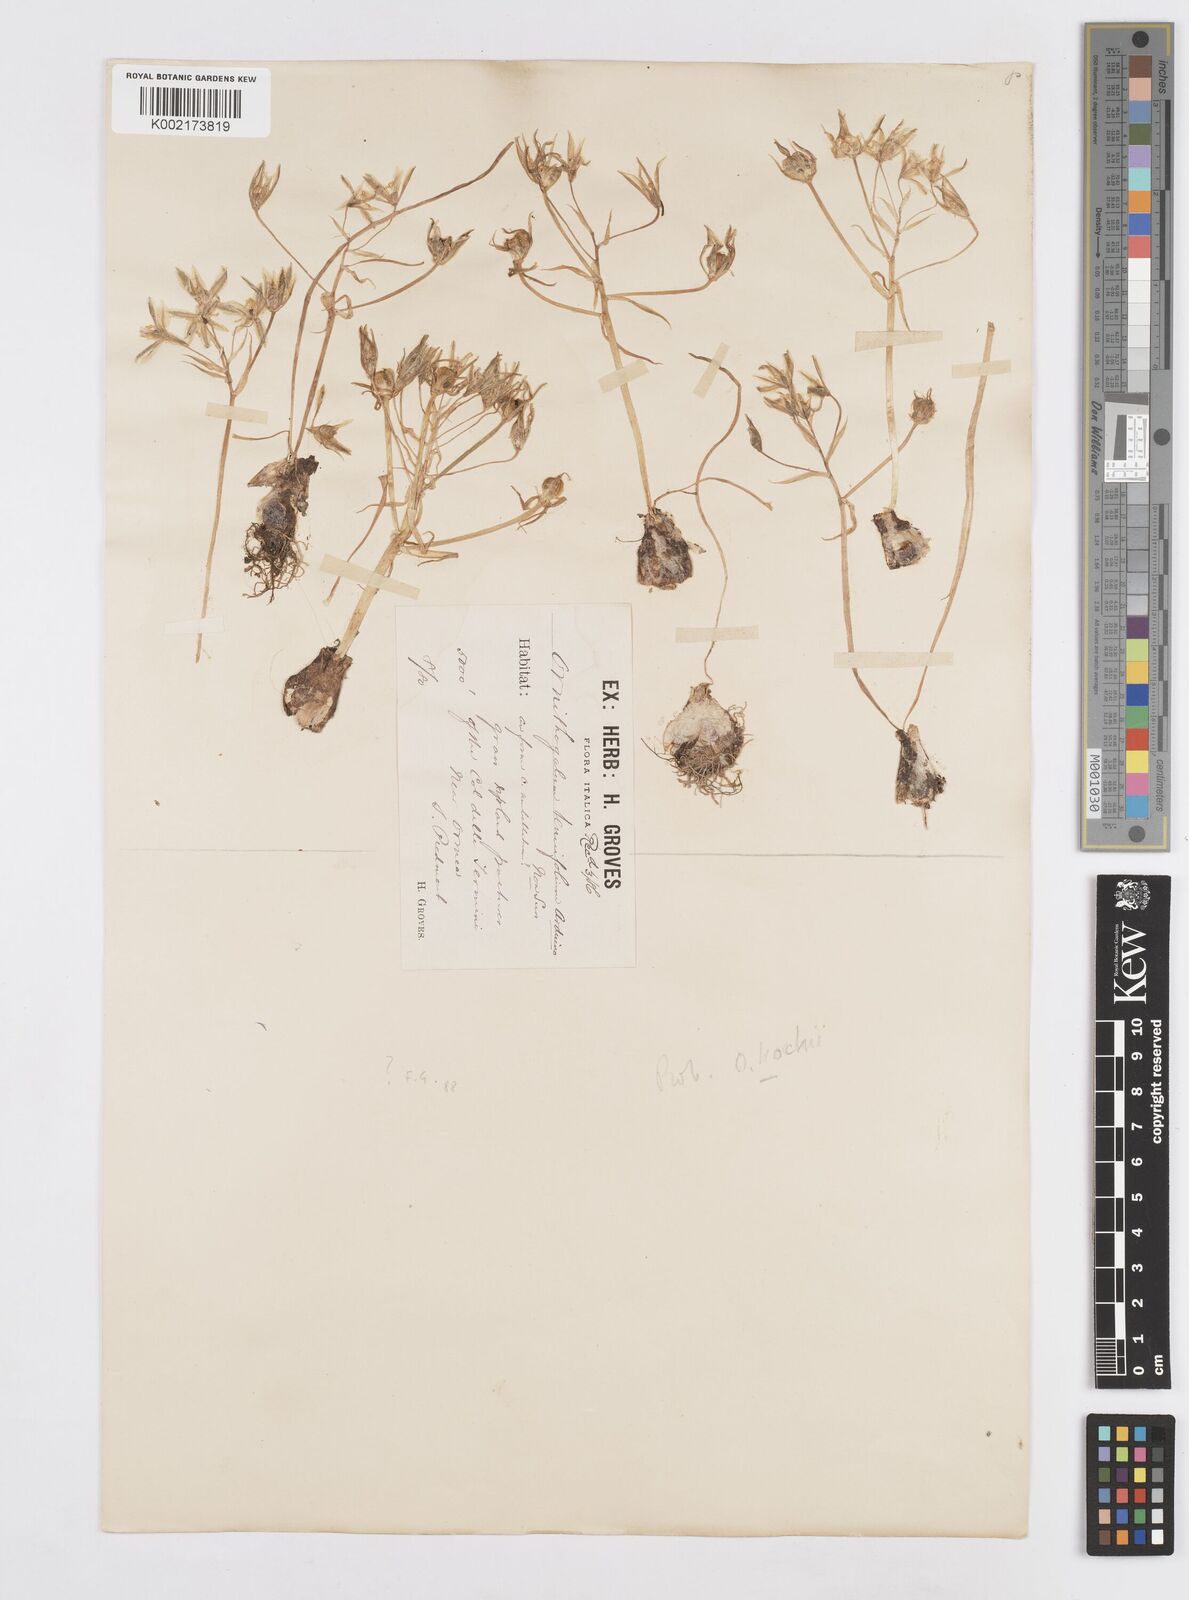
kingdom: Plantae
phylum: Tracheophyta
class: Liliopsida
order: Asparagales
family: Asparagaceae
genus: Ornithogalum
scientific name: Ornithogalum umbellatum
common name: Garden star-of-bethlehem
